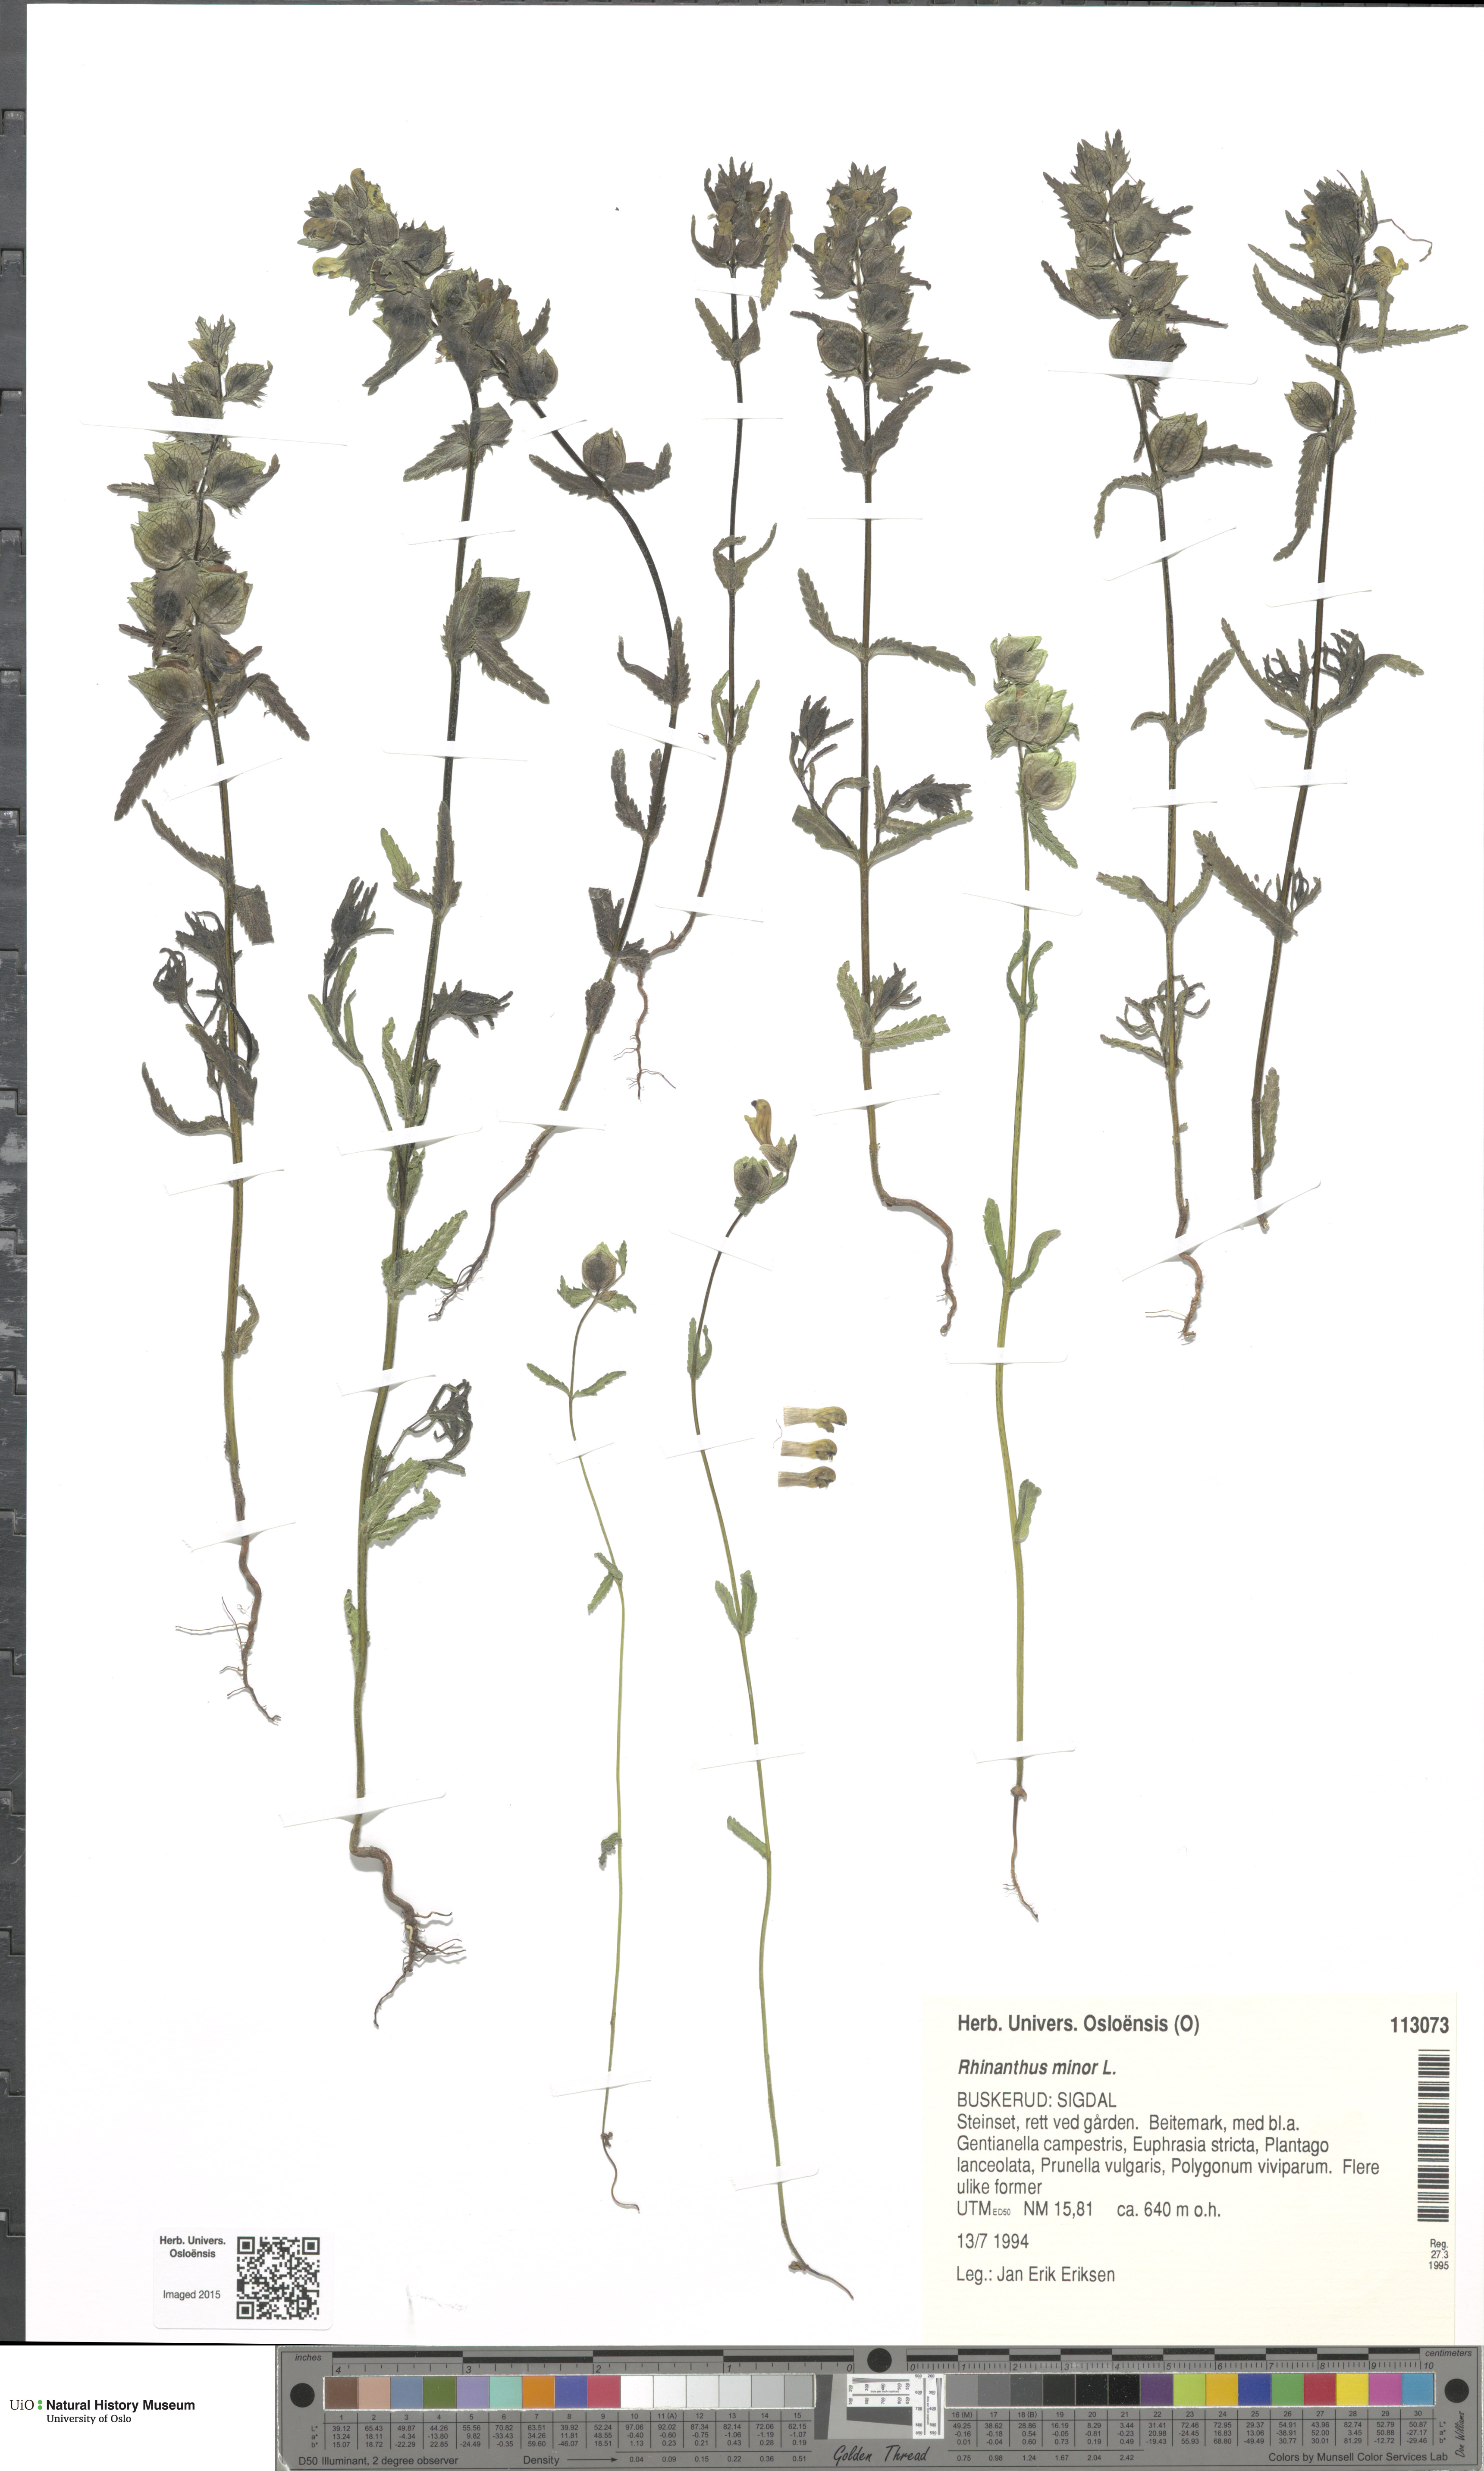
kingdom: Plantae
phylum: Tracheophyta
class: Magnoliopsida
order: Lamiales
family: Orobanchaceae
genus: Rhinanthus
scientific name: Rhinanthus minor
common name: Yellow-rattle
